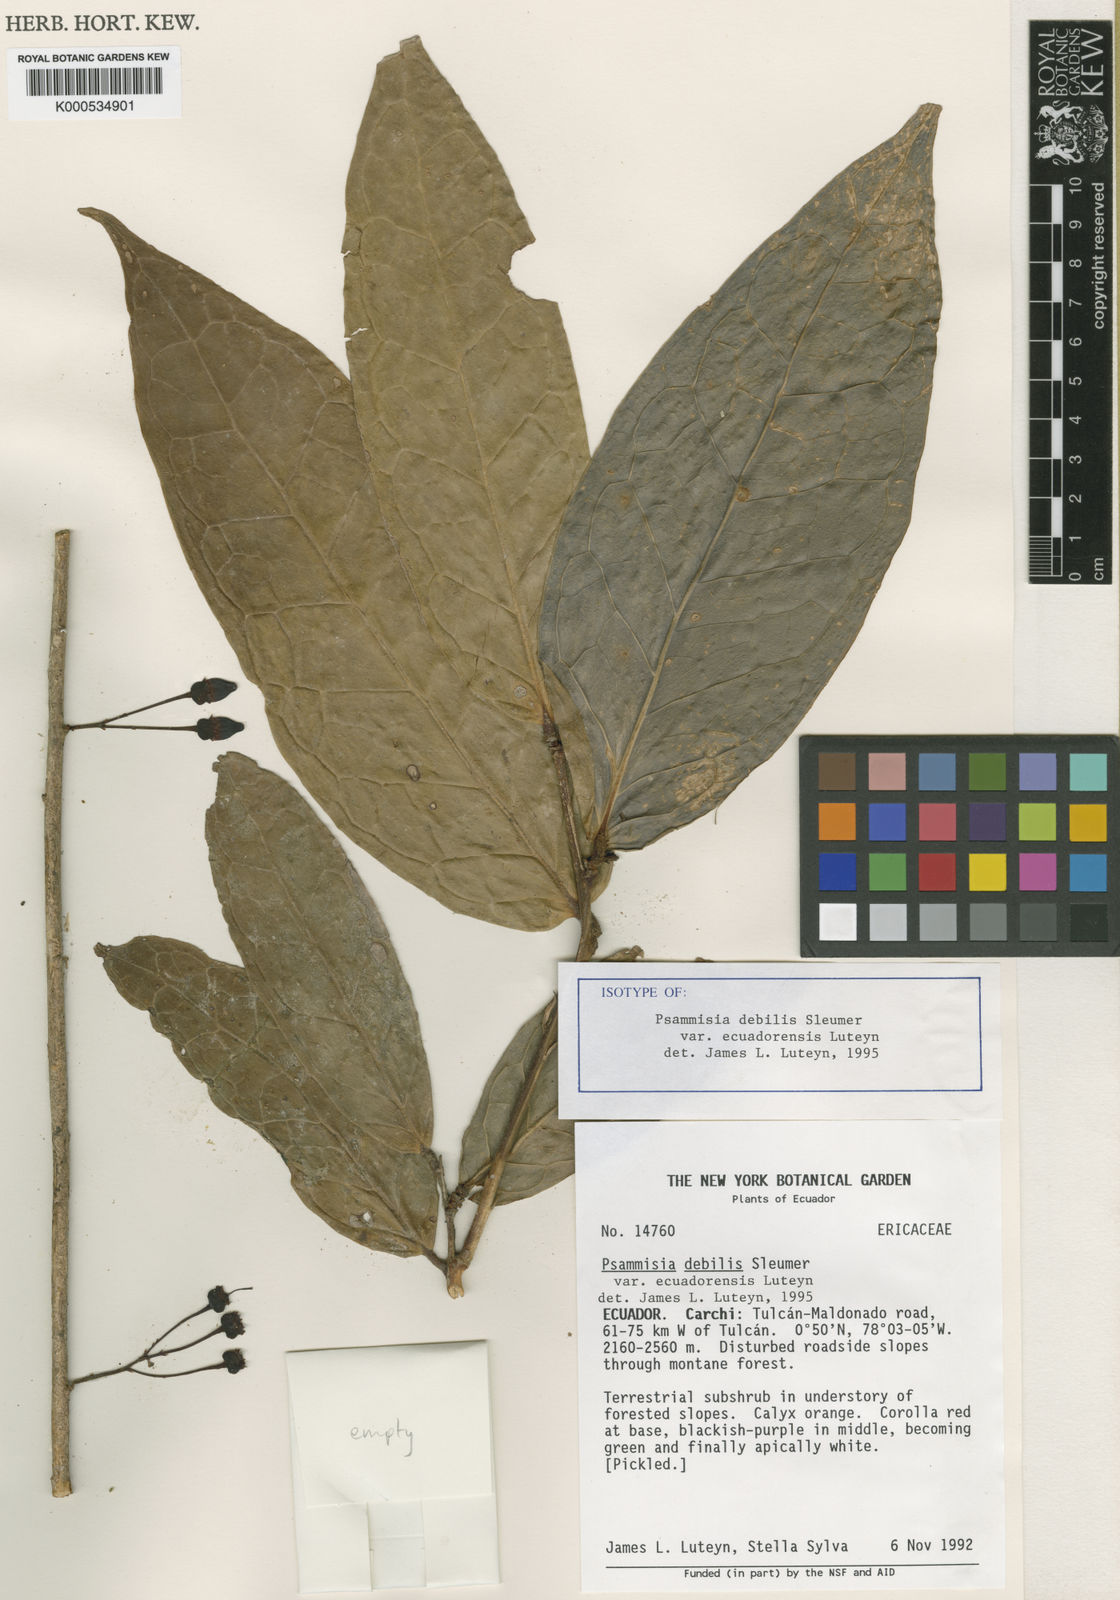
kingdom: Plantae
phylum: Tracheophyta
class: Magnoliopsida
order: Ericales
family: Ericaceae
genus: Psammisia
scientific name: Psammisia debilis
